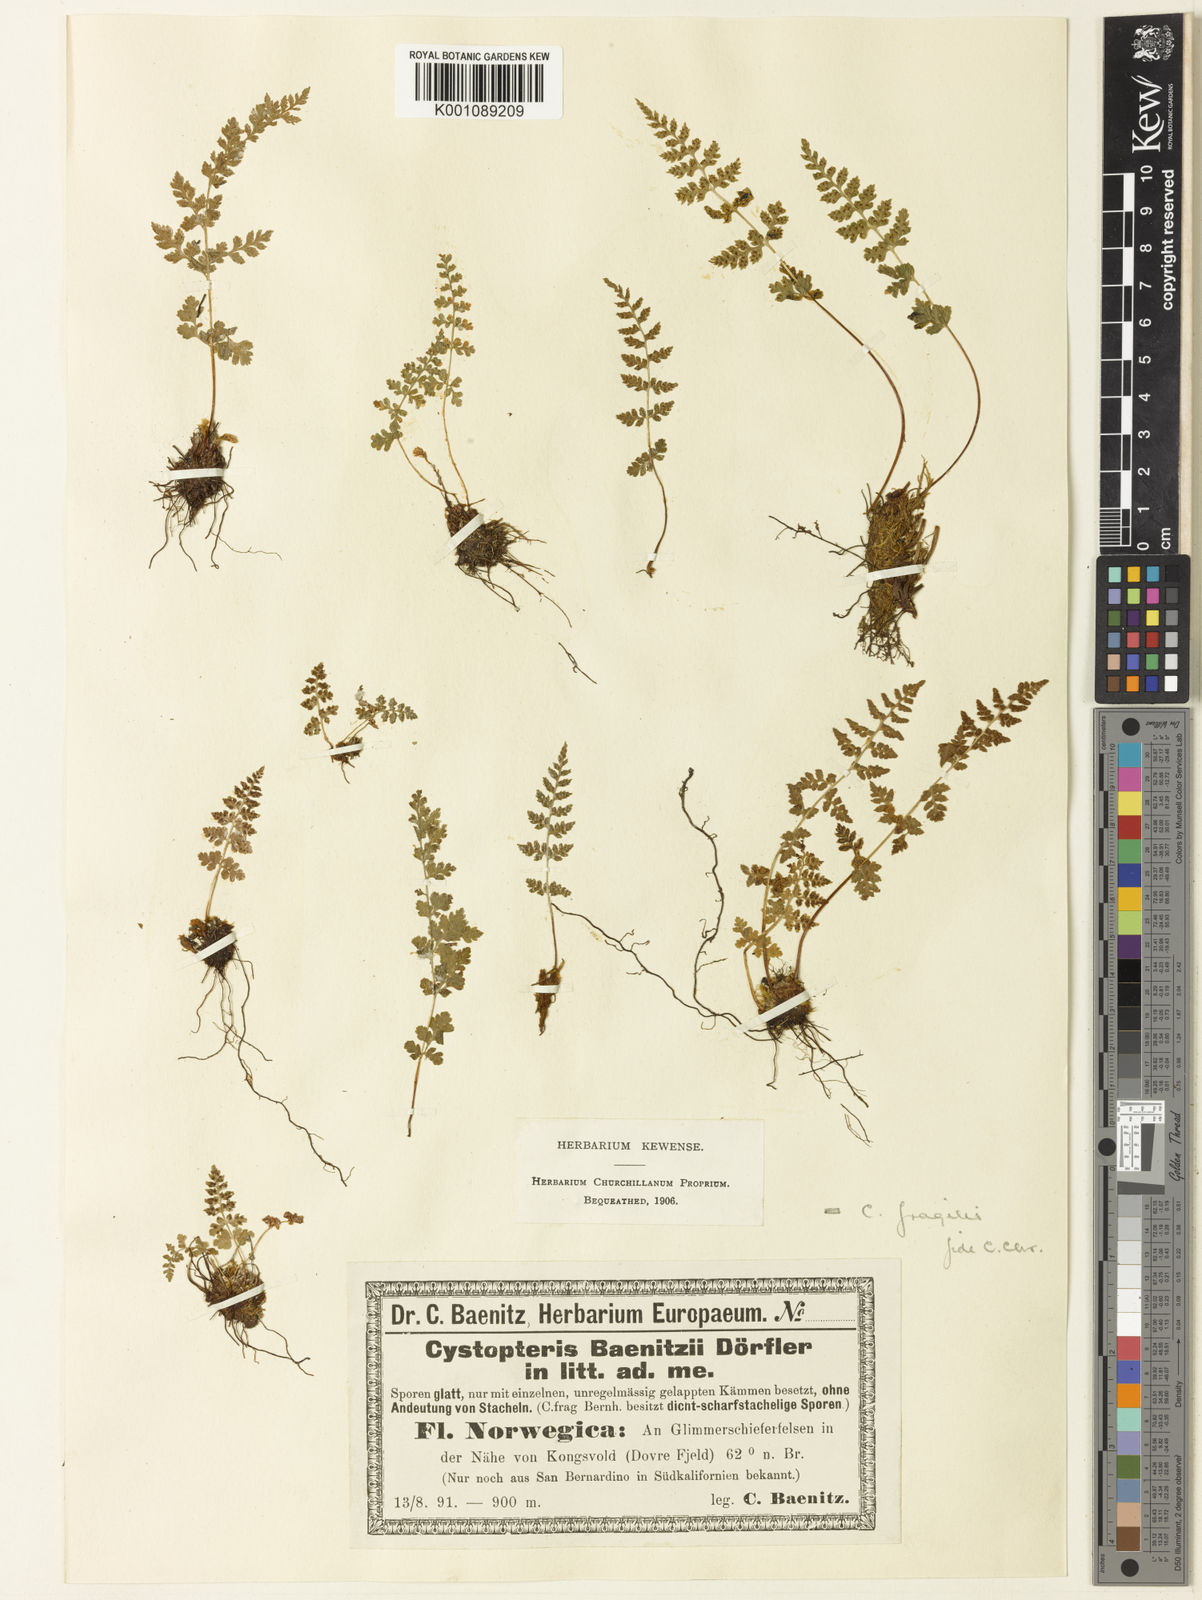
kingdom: Plantae
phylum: Tracheophyta
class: Polypodiopsida
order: Polypodiales
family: Cystopteridaceae
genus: Cystopteris
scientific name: Cystopteris fragilis
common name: Brittle bladder fern
